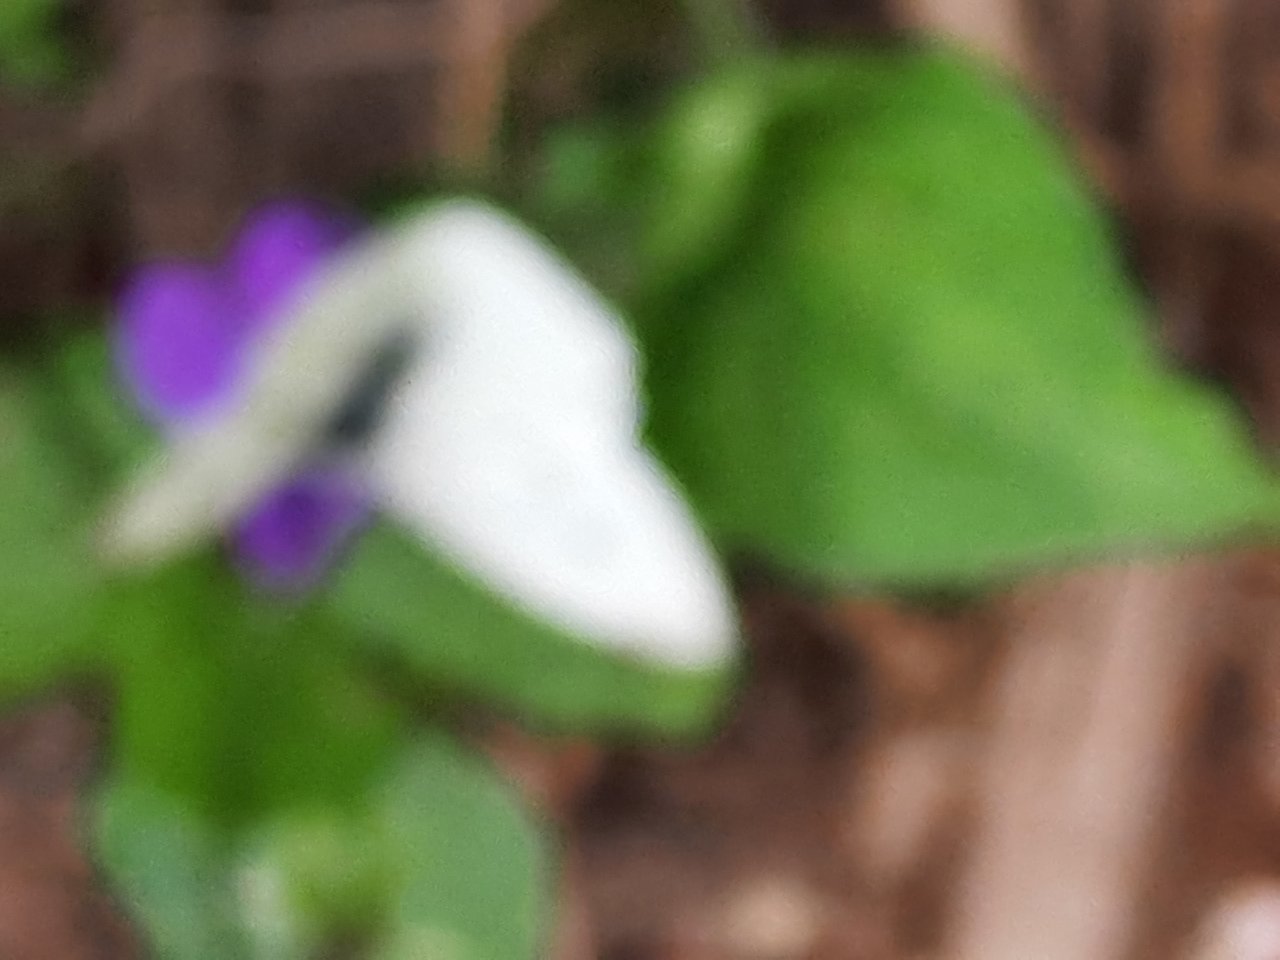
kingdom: Animalia
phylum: Arthropoda
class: Insecta
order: Lepidoptera
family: Pieridae
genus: Pieris
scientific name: Pieris rapae
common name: Cabbage White
